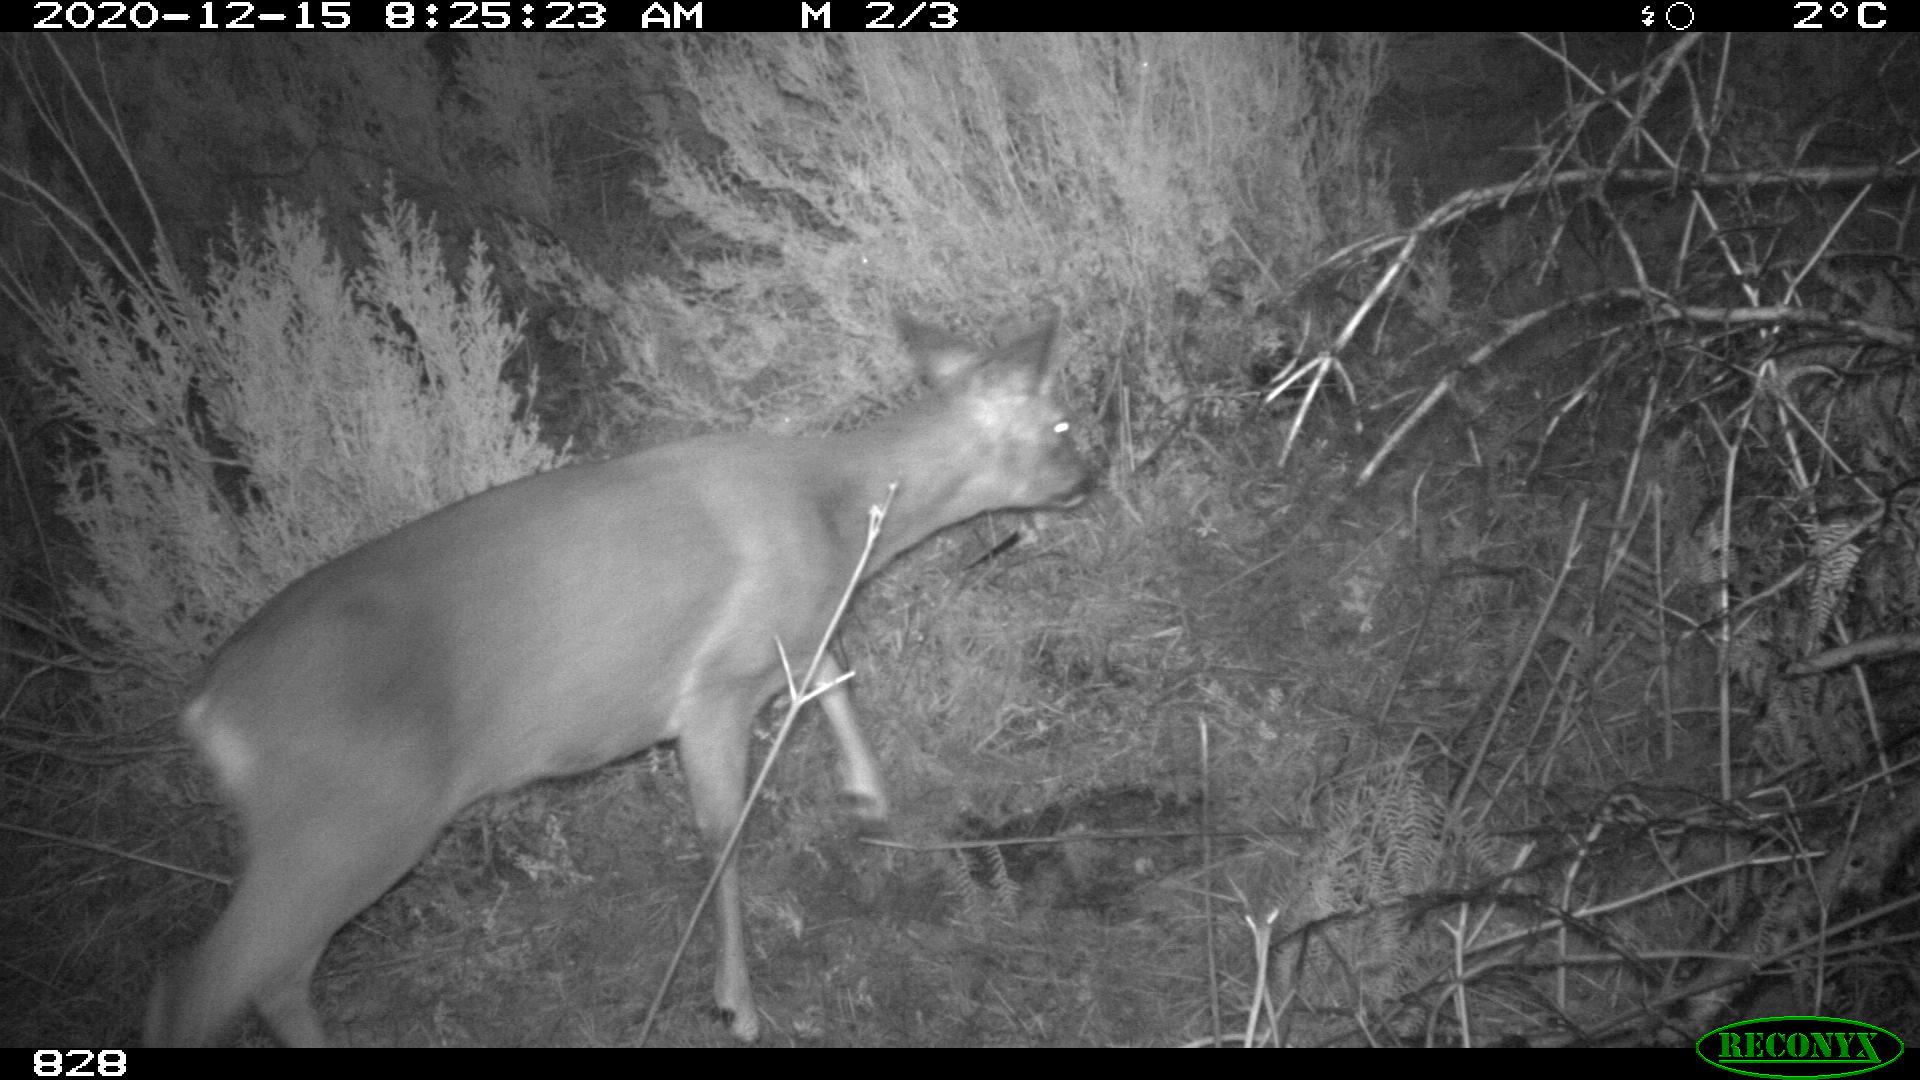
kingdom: Animalia
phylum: Chordata
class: Mammalia
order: Artiodactyla
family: Cervidae
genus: Capreolus
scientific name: Capreolus capreolus
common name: Western roe deer
